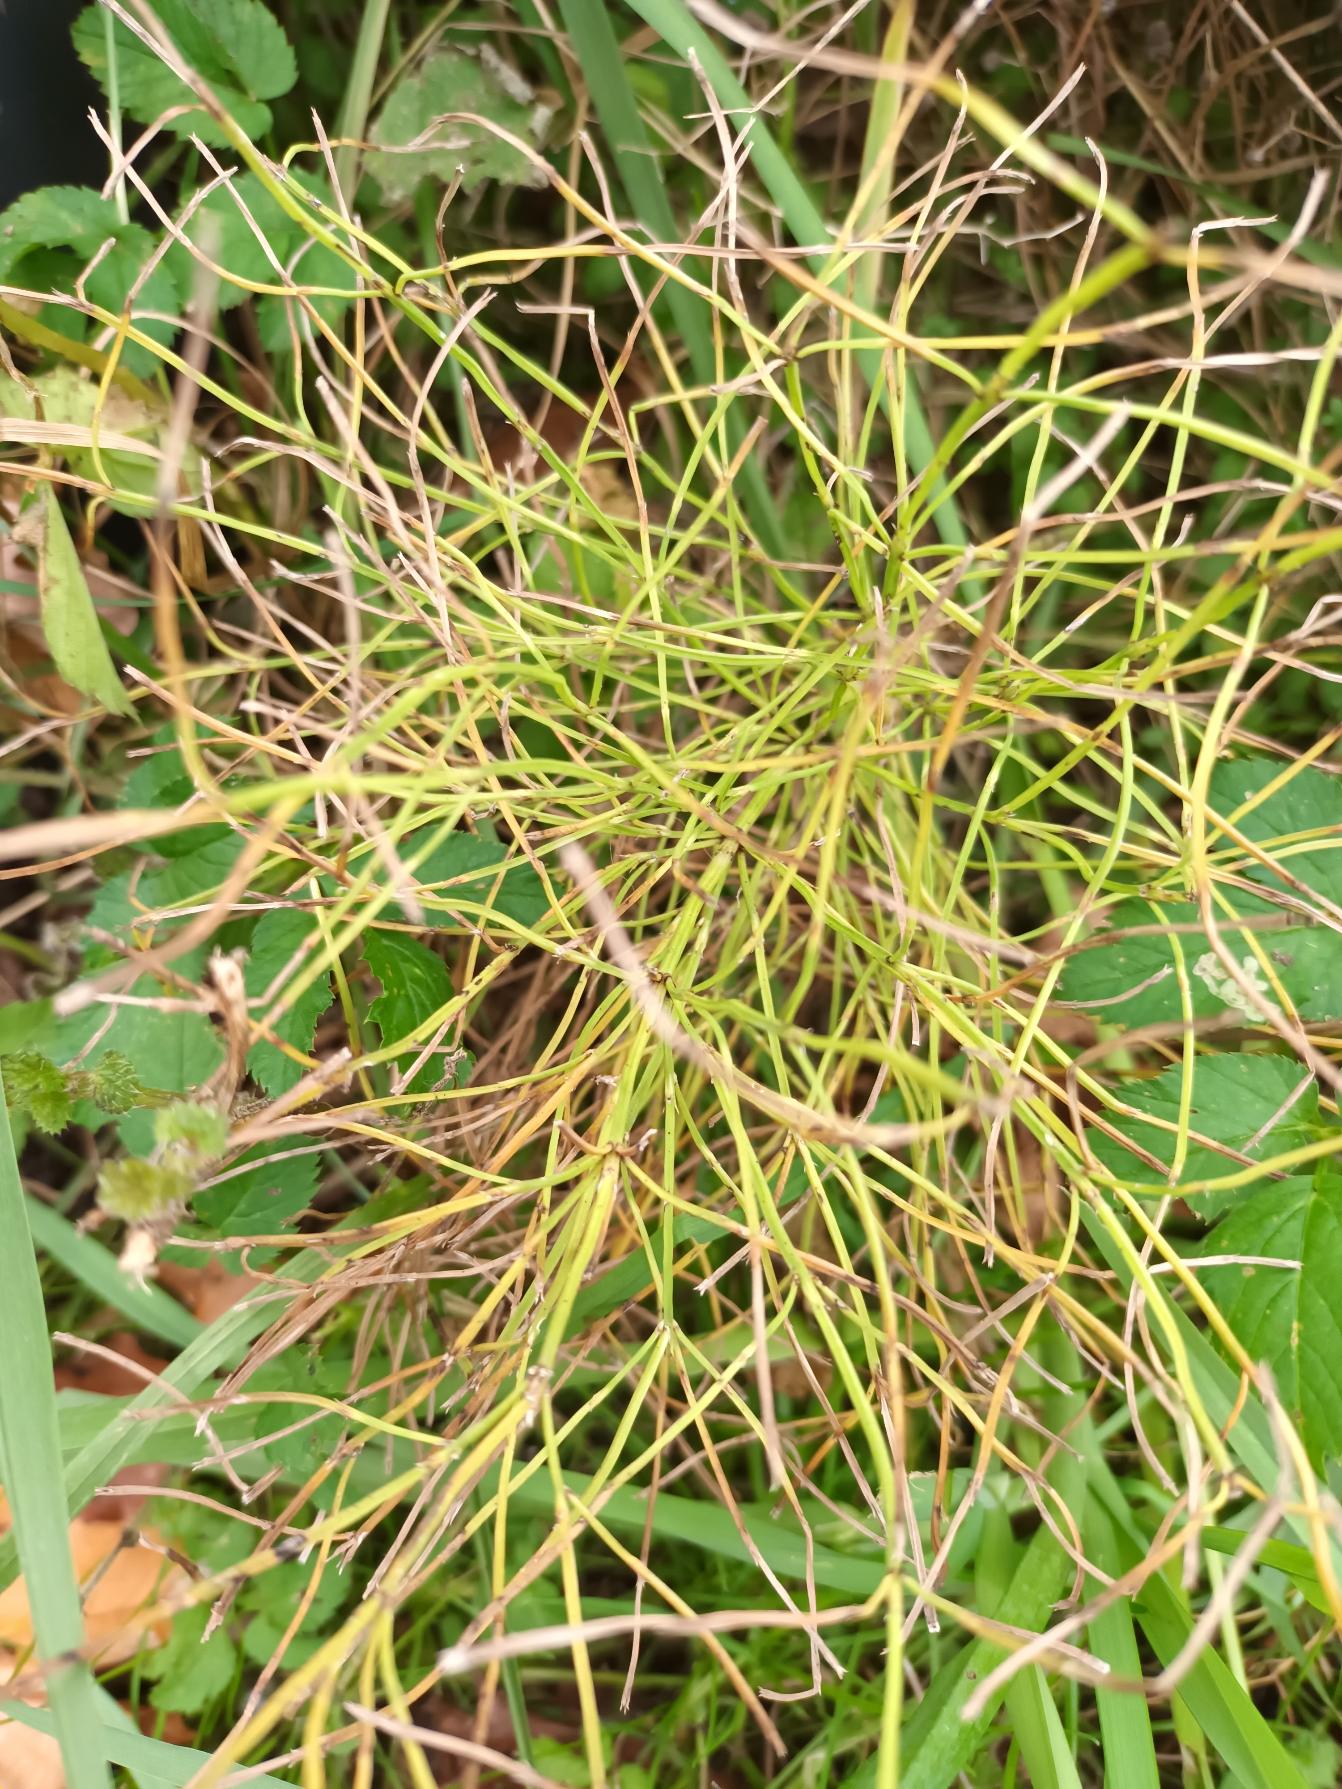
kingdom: Plantae
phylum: Tracheophyta
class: Polypodiopsida
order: Equisetales
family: Equisetaceae
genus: Equisetum
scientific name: Equisetum arvense
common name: Ager-padderok
